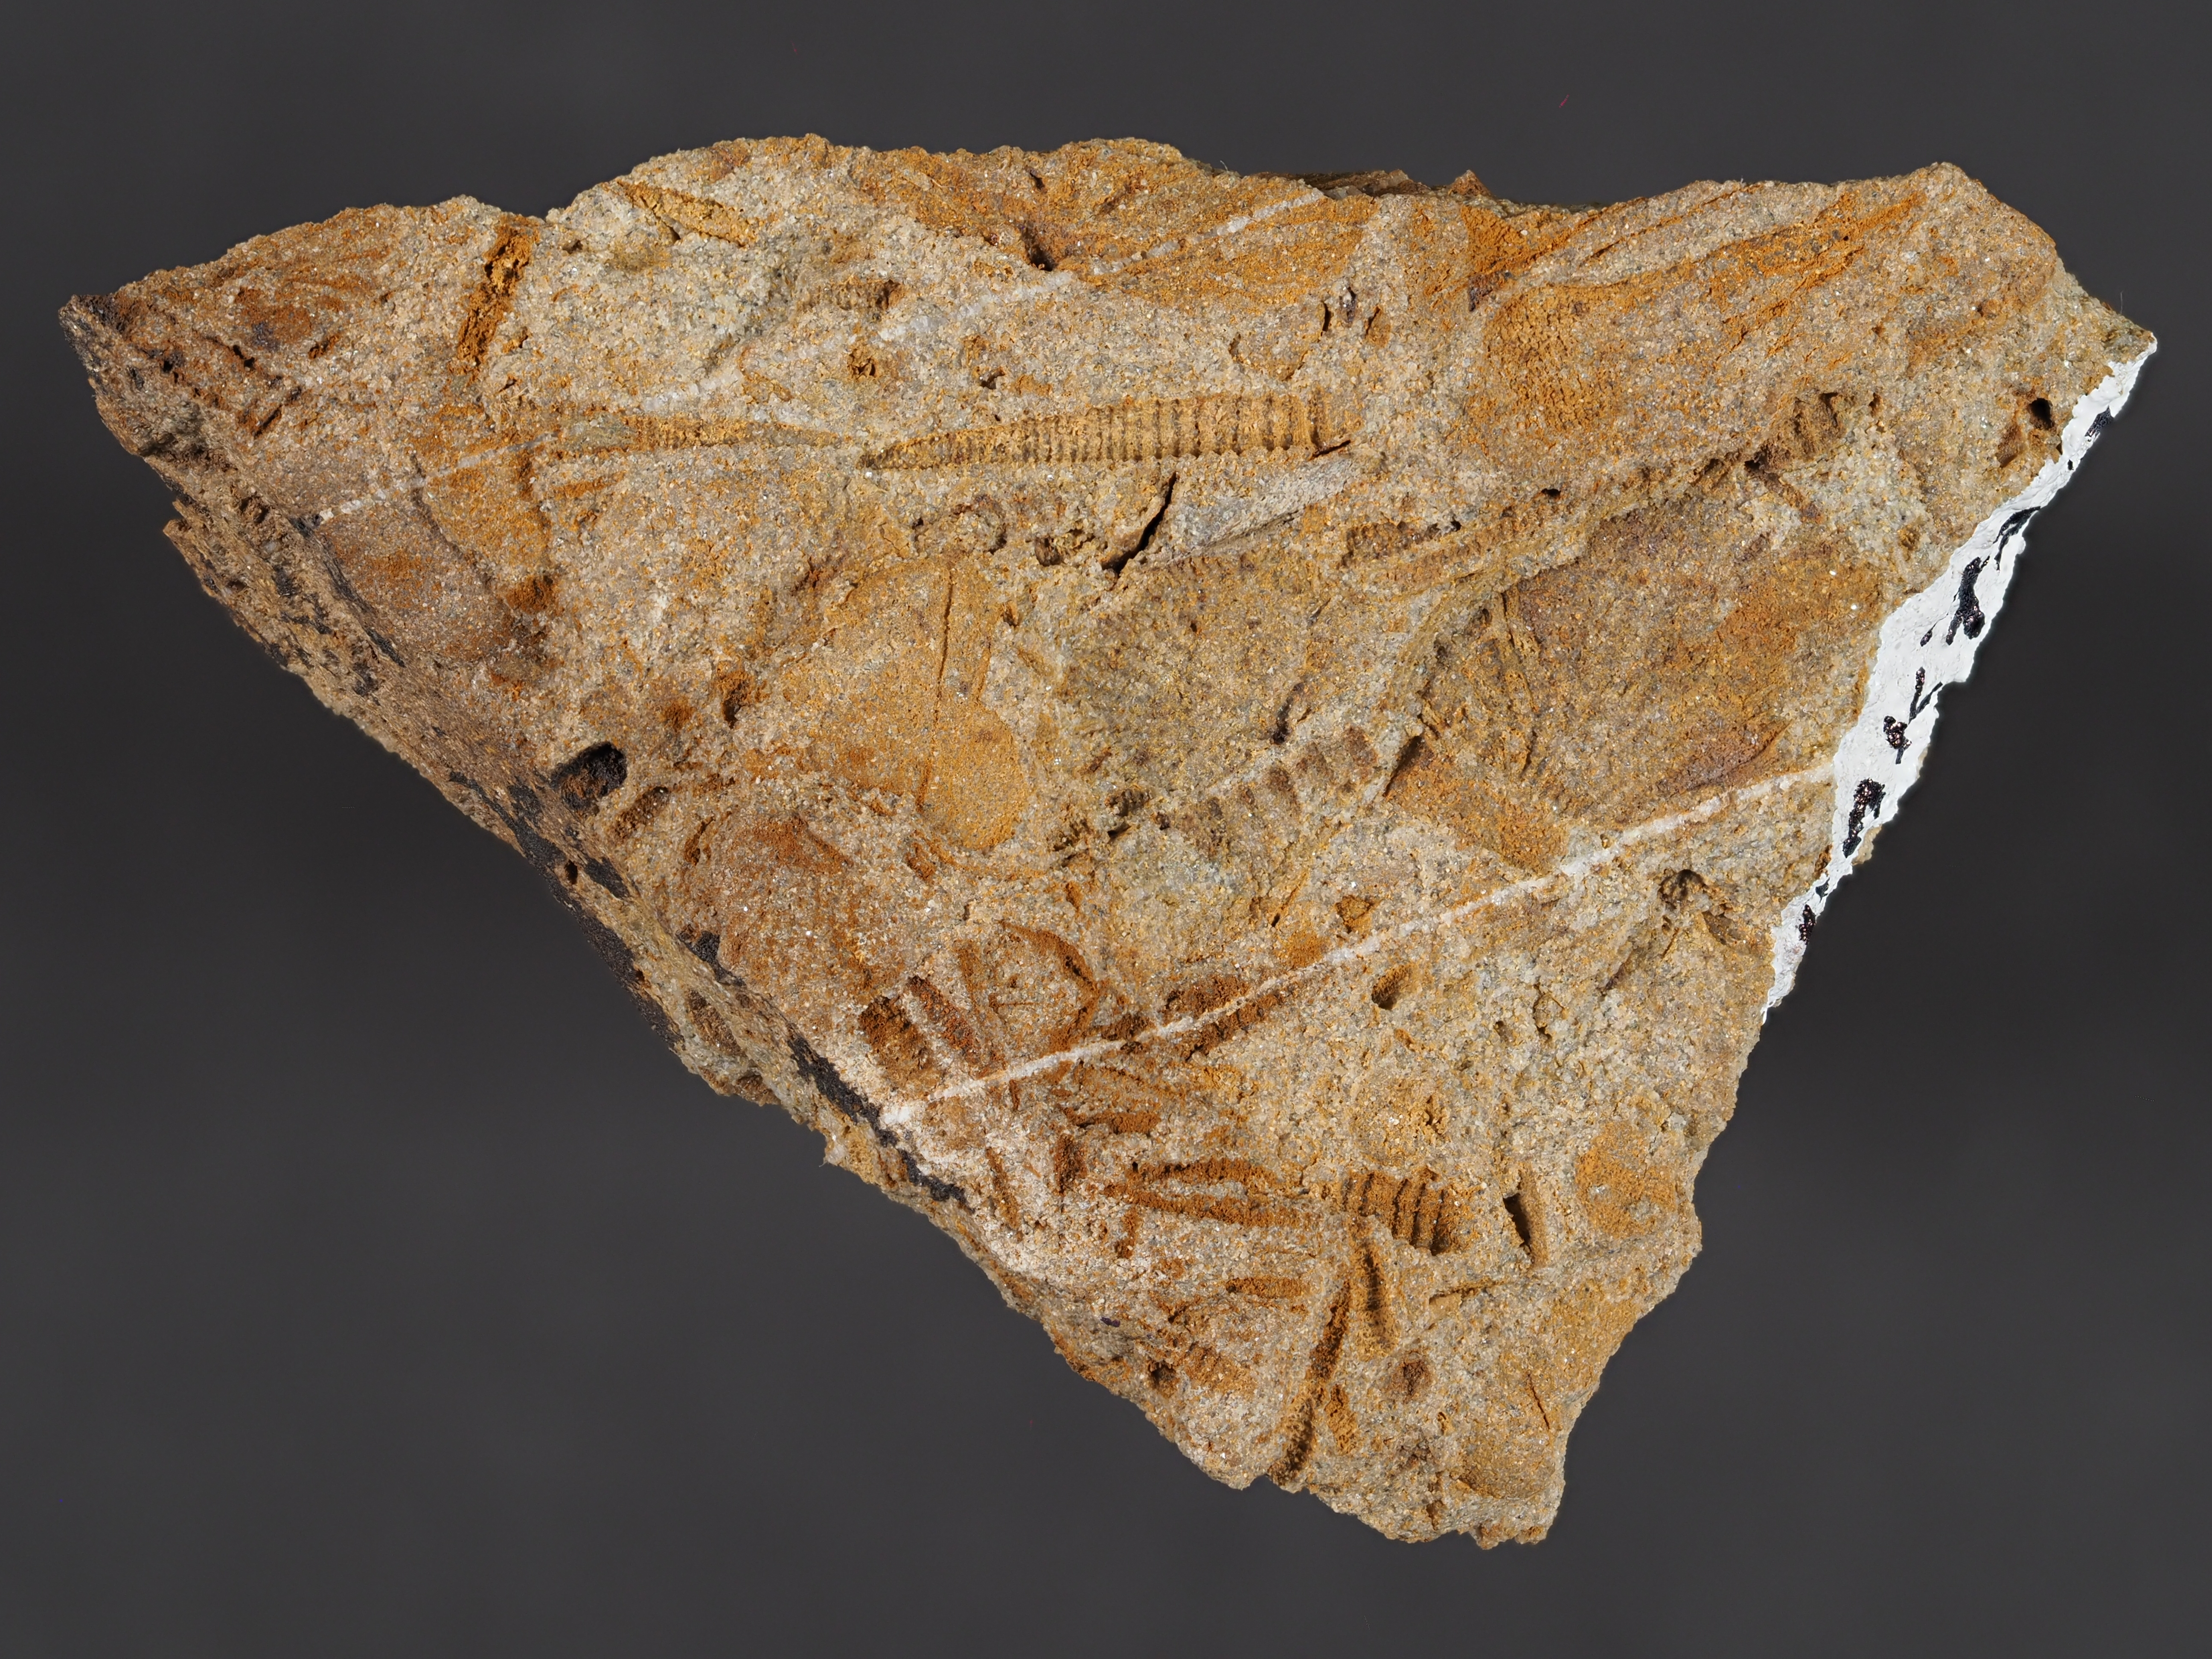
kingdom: Animalia
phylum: Mollusca
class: Bivalvia
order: Nuculanida
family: Cucullellidae
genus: Nuculites
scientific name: Nuculites
